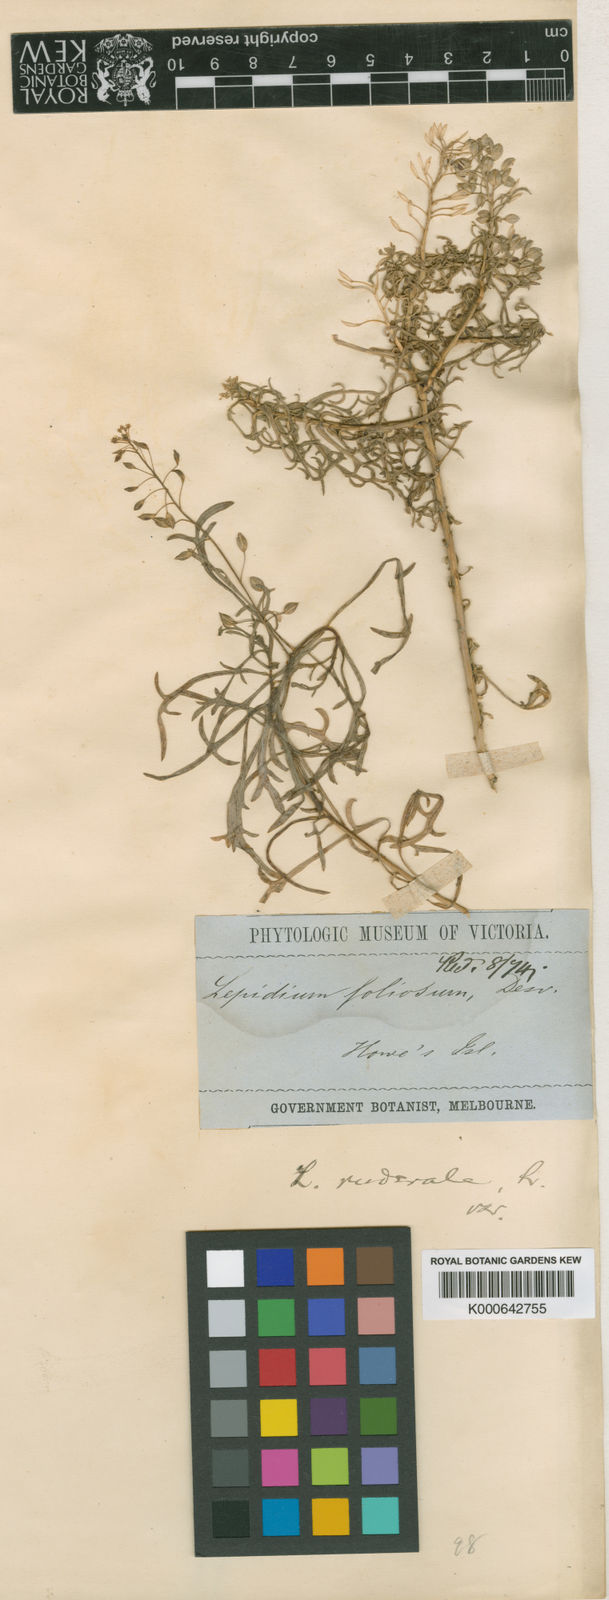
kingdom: Plantae
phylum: Tracheophyta
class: Magnoliopsida
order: Brassicales
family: Brassicaceae
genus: Lepidium
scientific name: Lepidium howei-insulae
